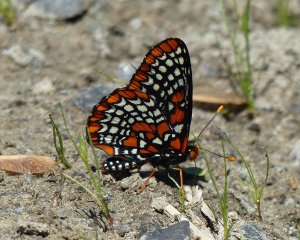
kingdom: Animalia
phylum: Arthropoda
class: Insecta
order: Lepidoptera
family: Nymphalidae
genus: Euphydryas
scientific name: Euphydryas phaeton
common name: Baltimore Checkerspot
